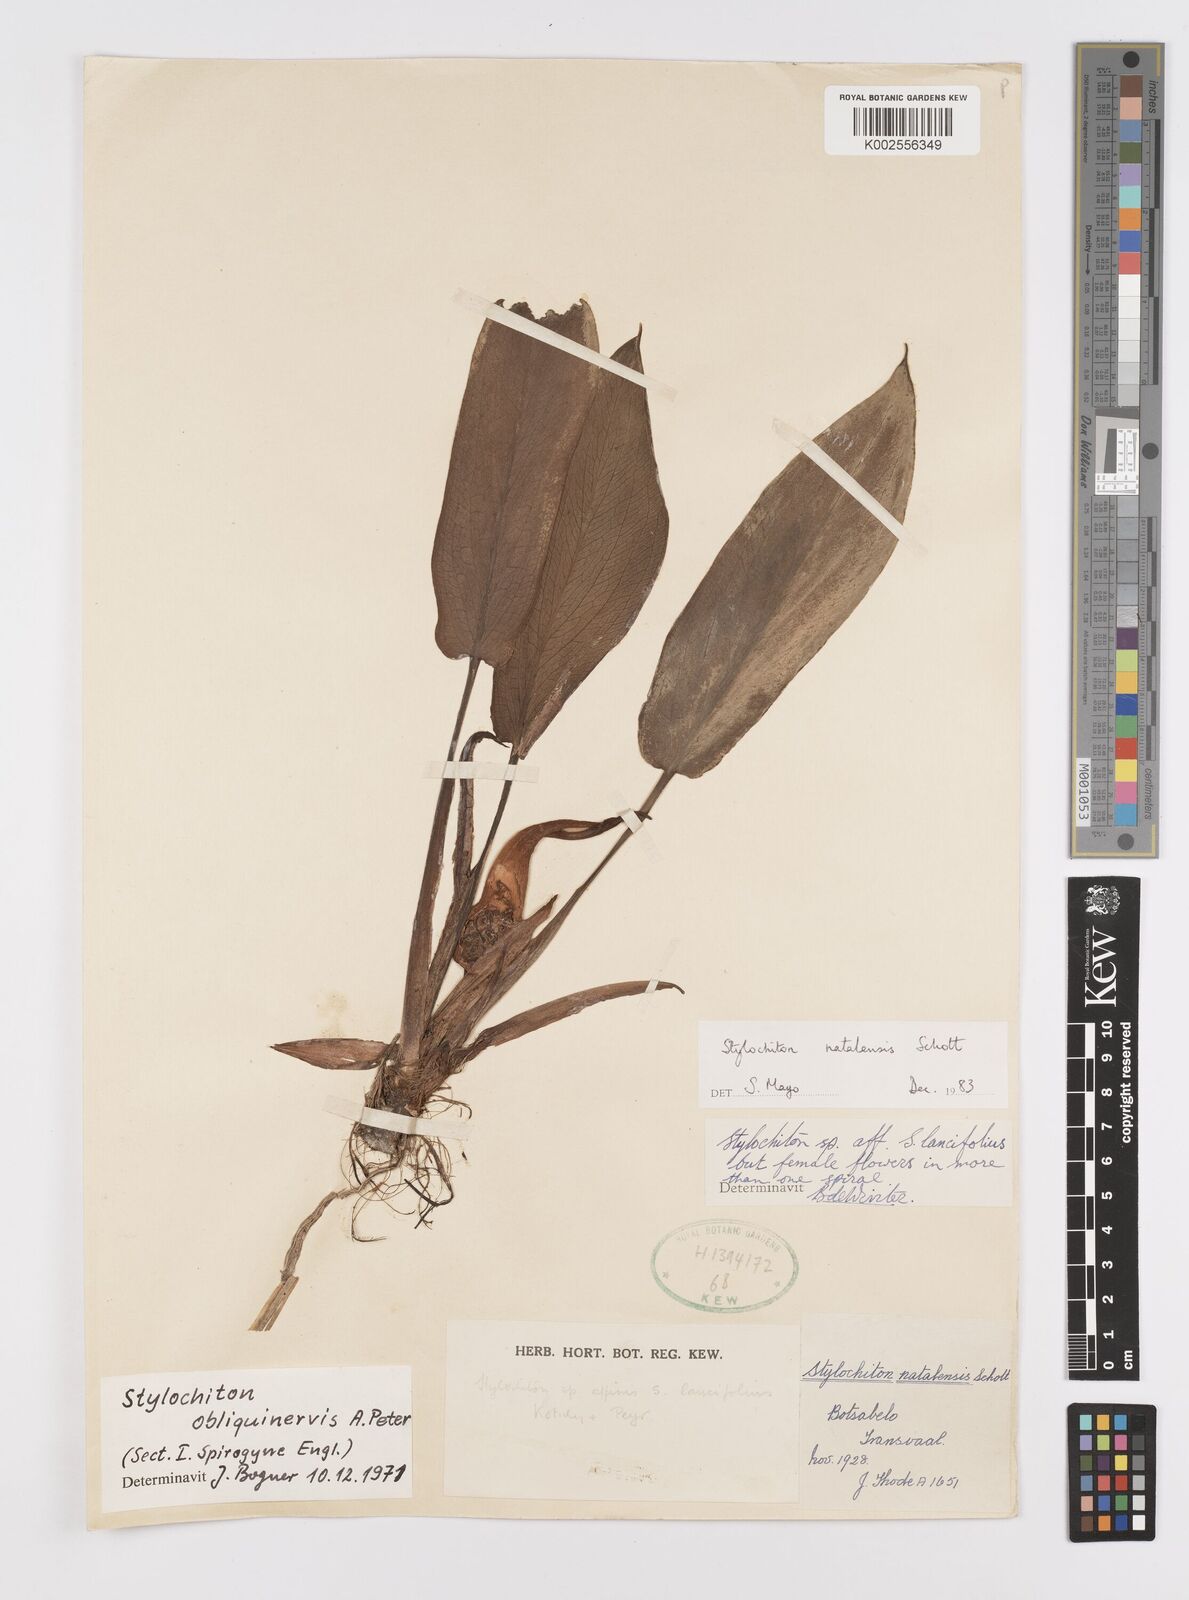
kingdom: Plantae
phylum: Tracheophyta
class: Liliopsida
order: Alismatales
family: Araceae
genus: Stylochaeton
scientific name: Stylochaeton natalense
